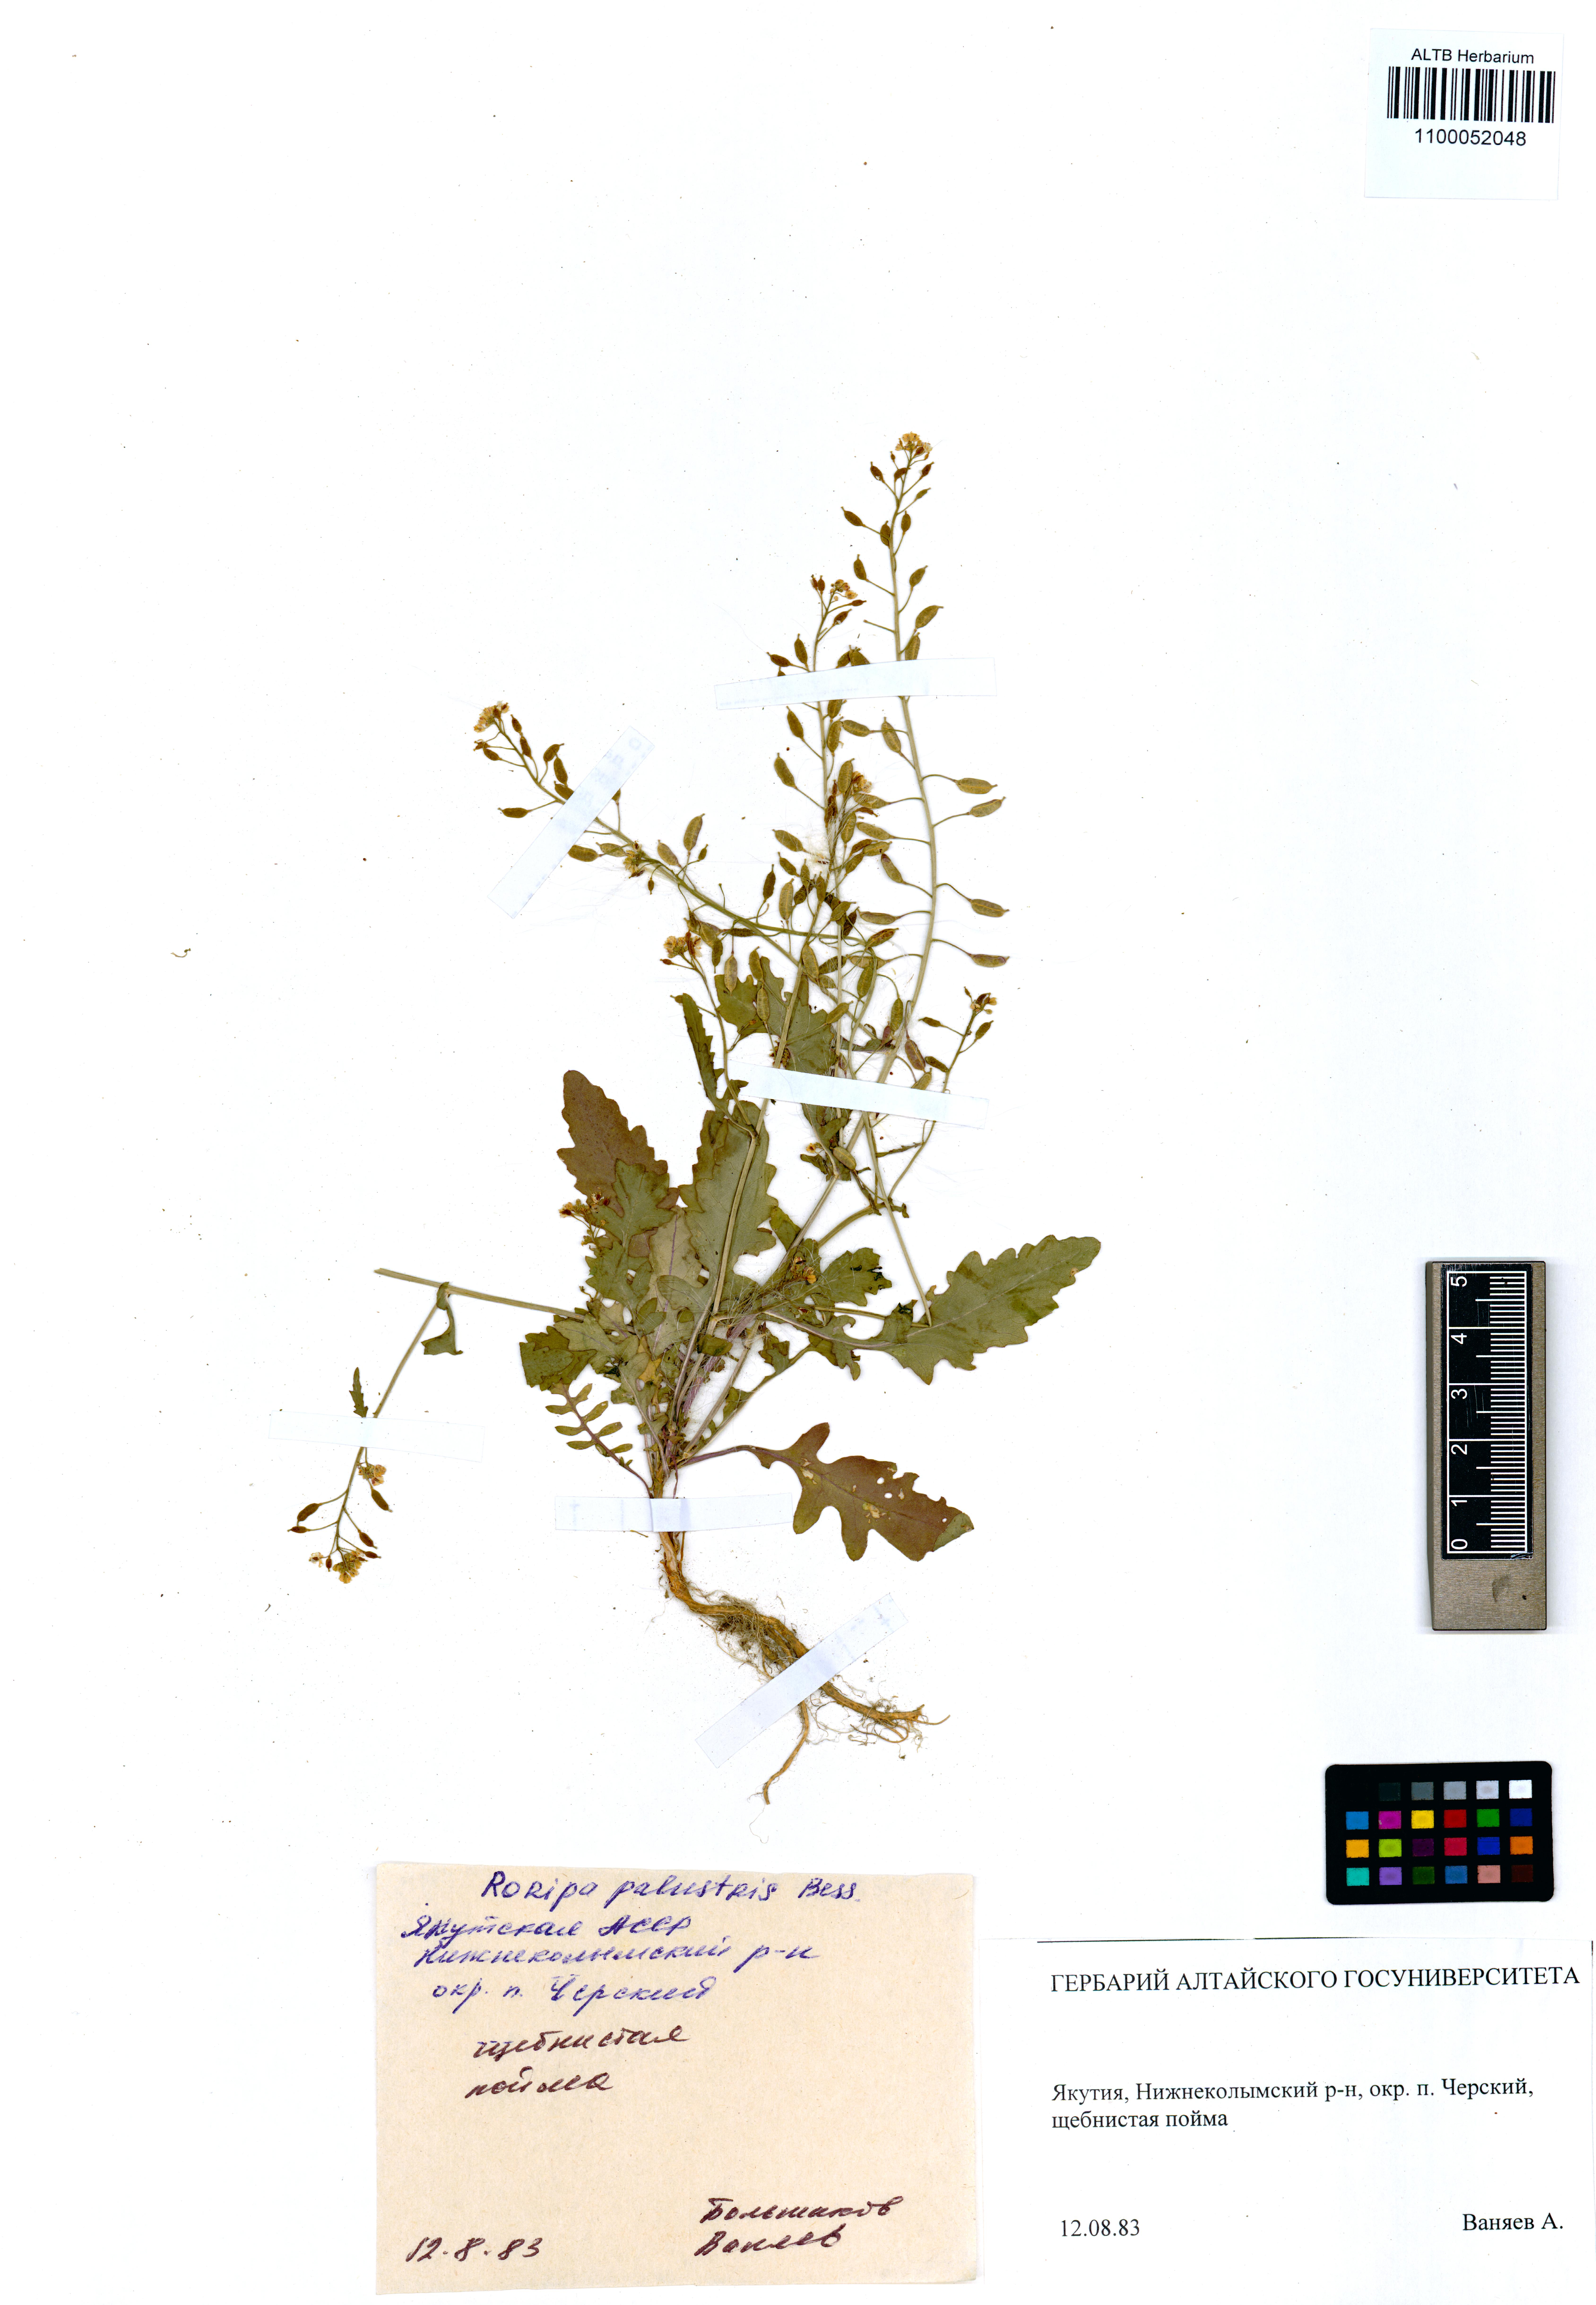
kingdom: Plantae
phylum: Tracheophyta
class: Magnoliopsida
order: Brassicales
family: Brassicaceae
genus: Rorippa
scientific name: Rorippa palustris
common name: Marsh yellow-cress
